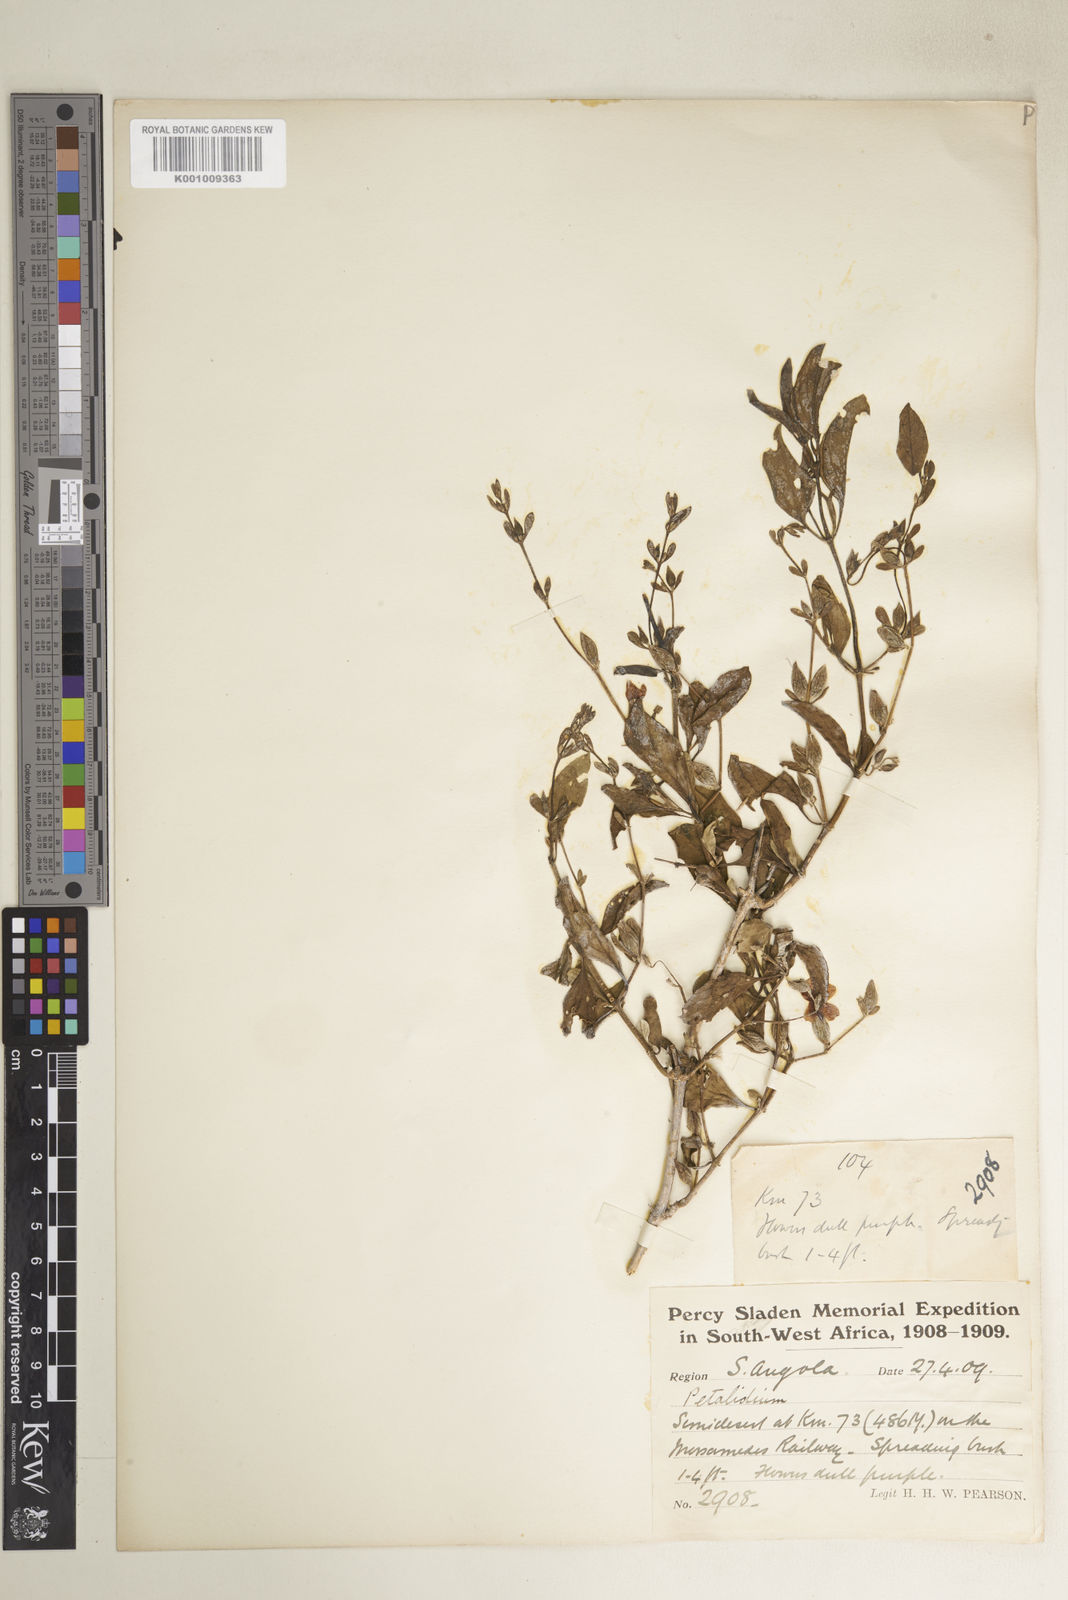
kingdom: Plantae
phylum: Tracheophyta
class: Magnoliopsida
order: Lamiales
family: Acanthaceae
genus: Petalidium
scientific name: Petalidium physaloides
